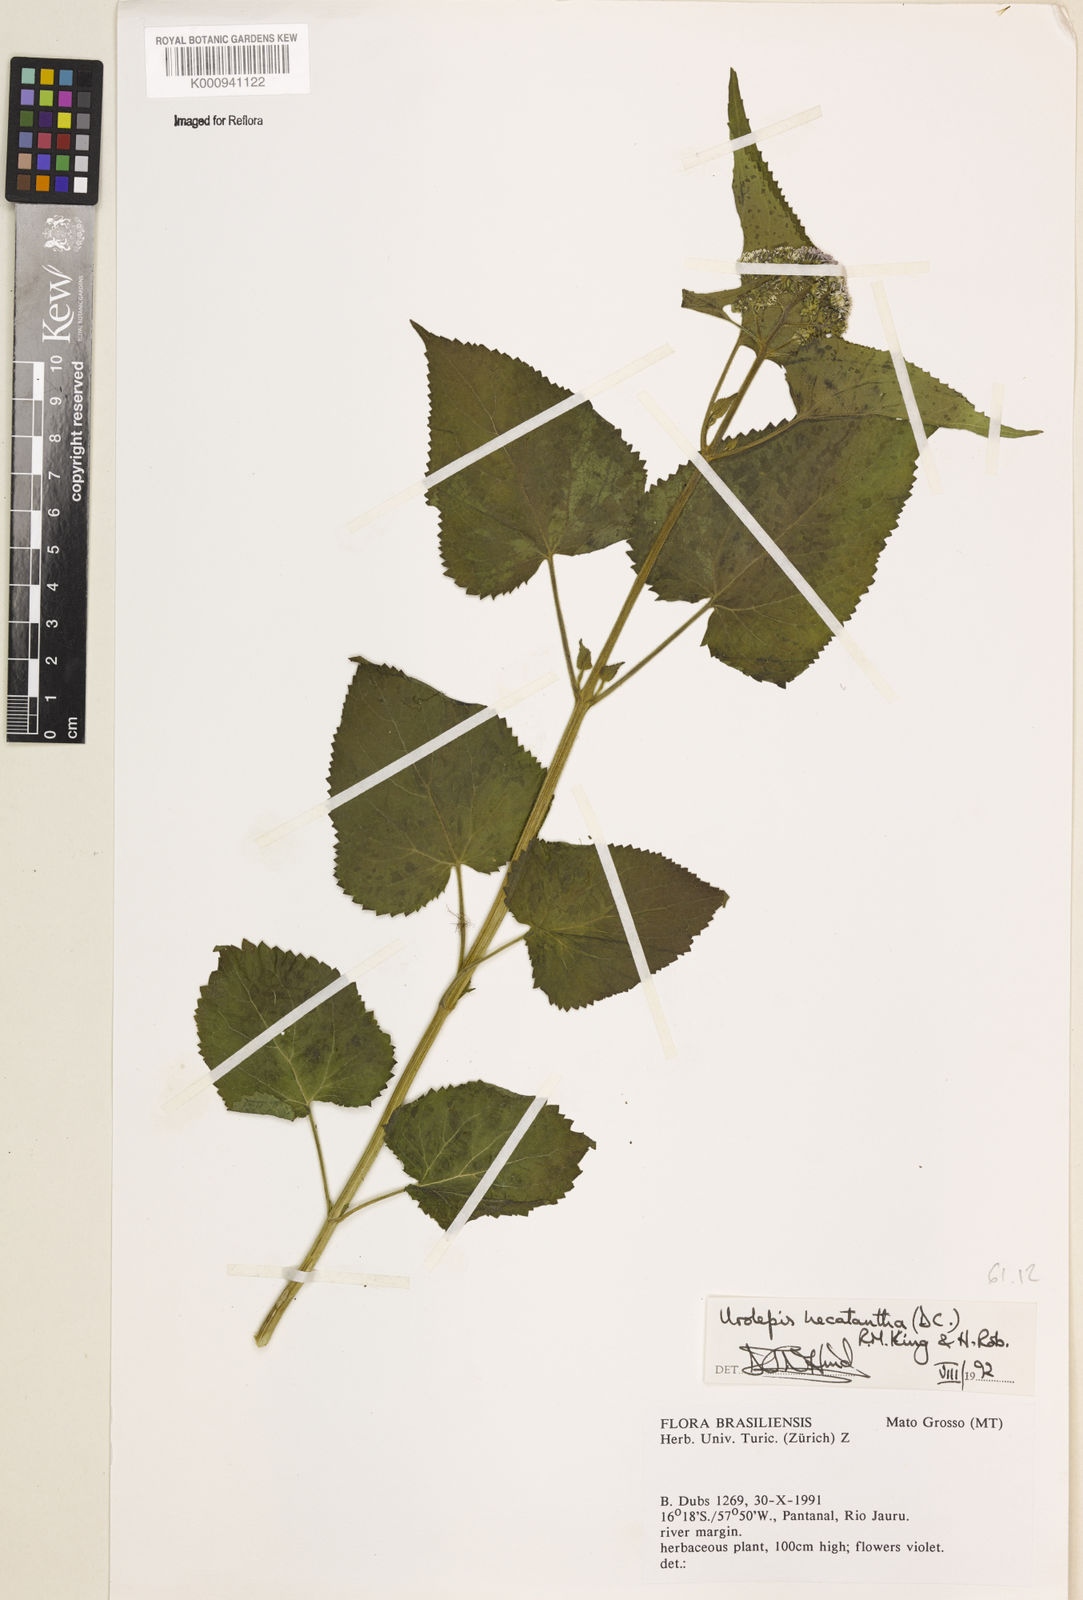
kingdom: Plantae
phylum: Tracheophyta
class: Magnoliopsida
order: Asterales
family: Asteraceae
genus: Urolepis
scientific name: Urolepis hecatantha
